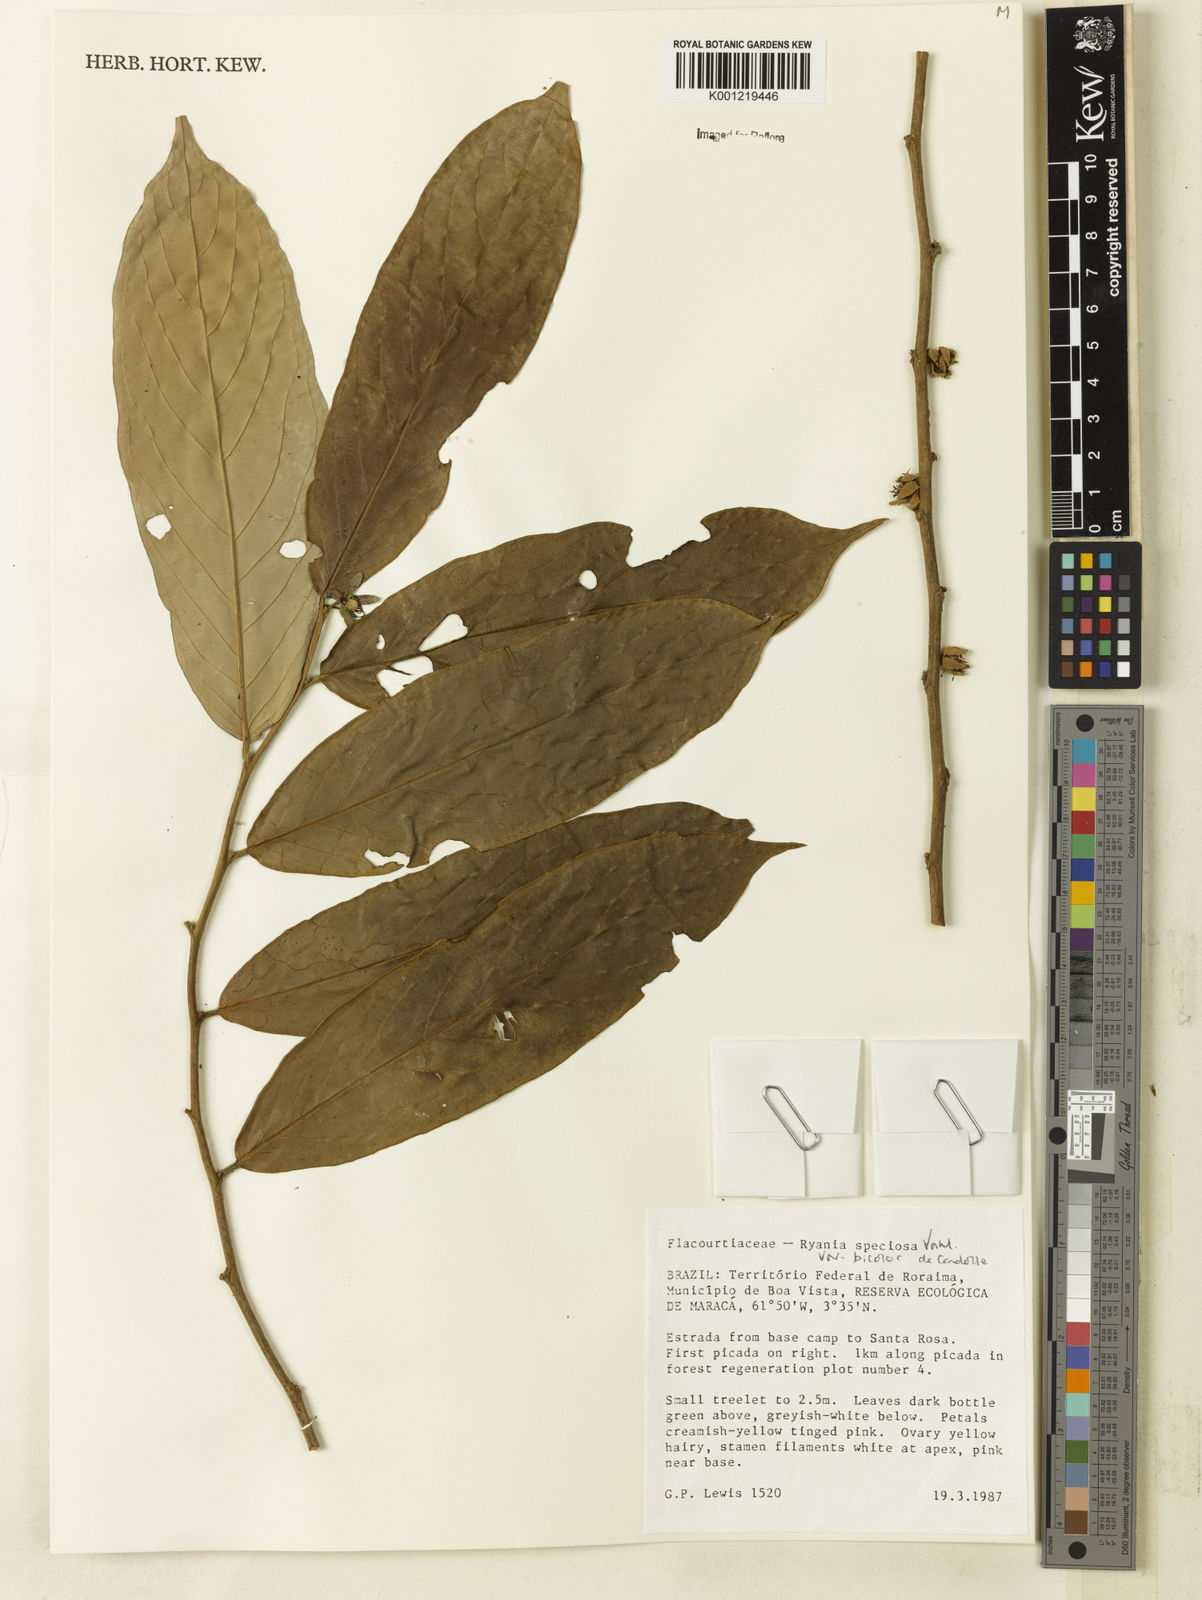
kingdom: Plantae
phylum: Tracheophyta
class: Magnoliopsida
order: Malpighiales
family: Salicaceae
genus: Ryania
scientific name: Ryania speciosa
